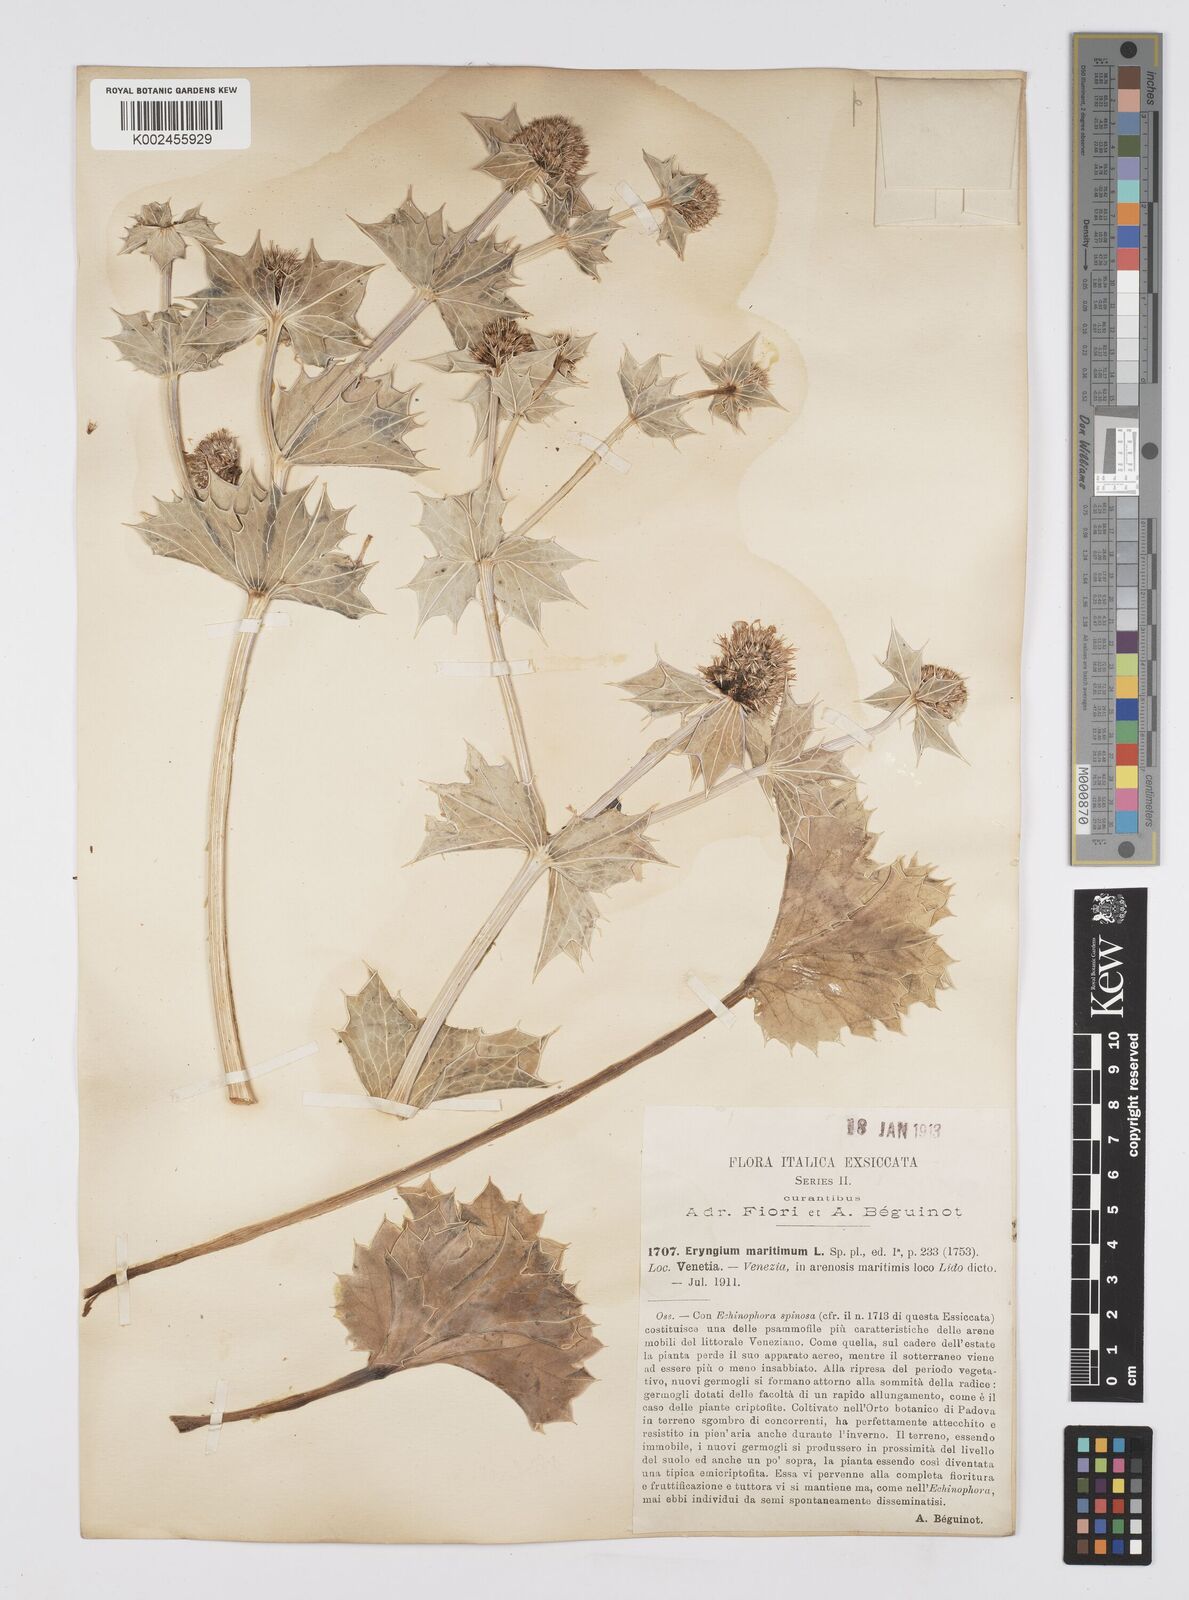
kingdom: Plantae
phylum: Tracheophyta
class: Magnoliopsida
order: Apiales
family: Apiaceae
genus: Eryngium
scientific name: Eryngium maritimum
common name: Sea-holly
